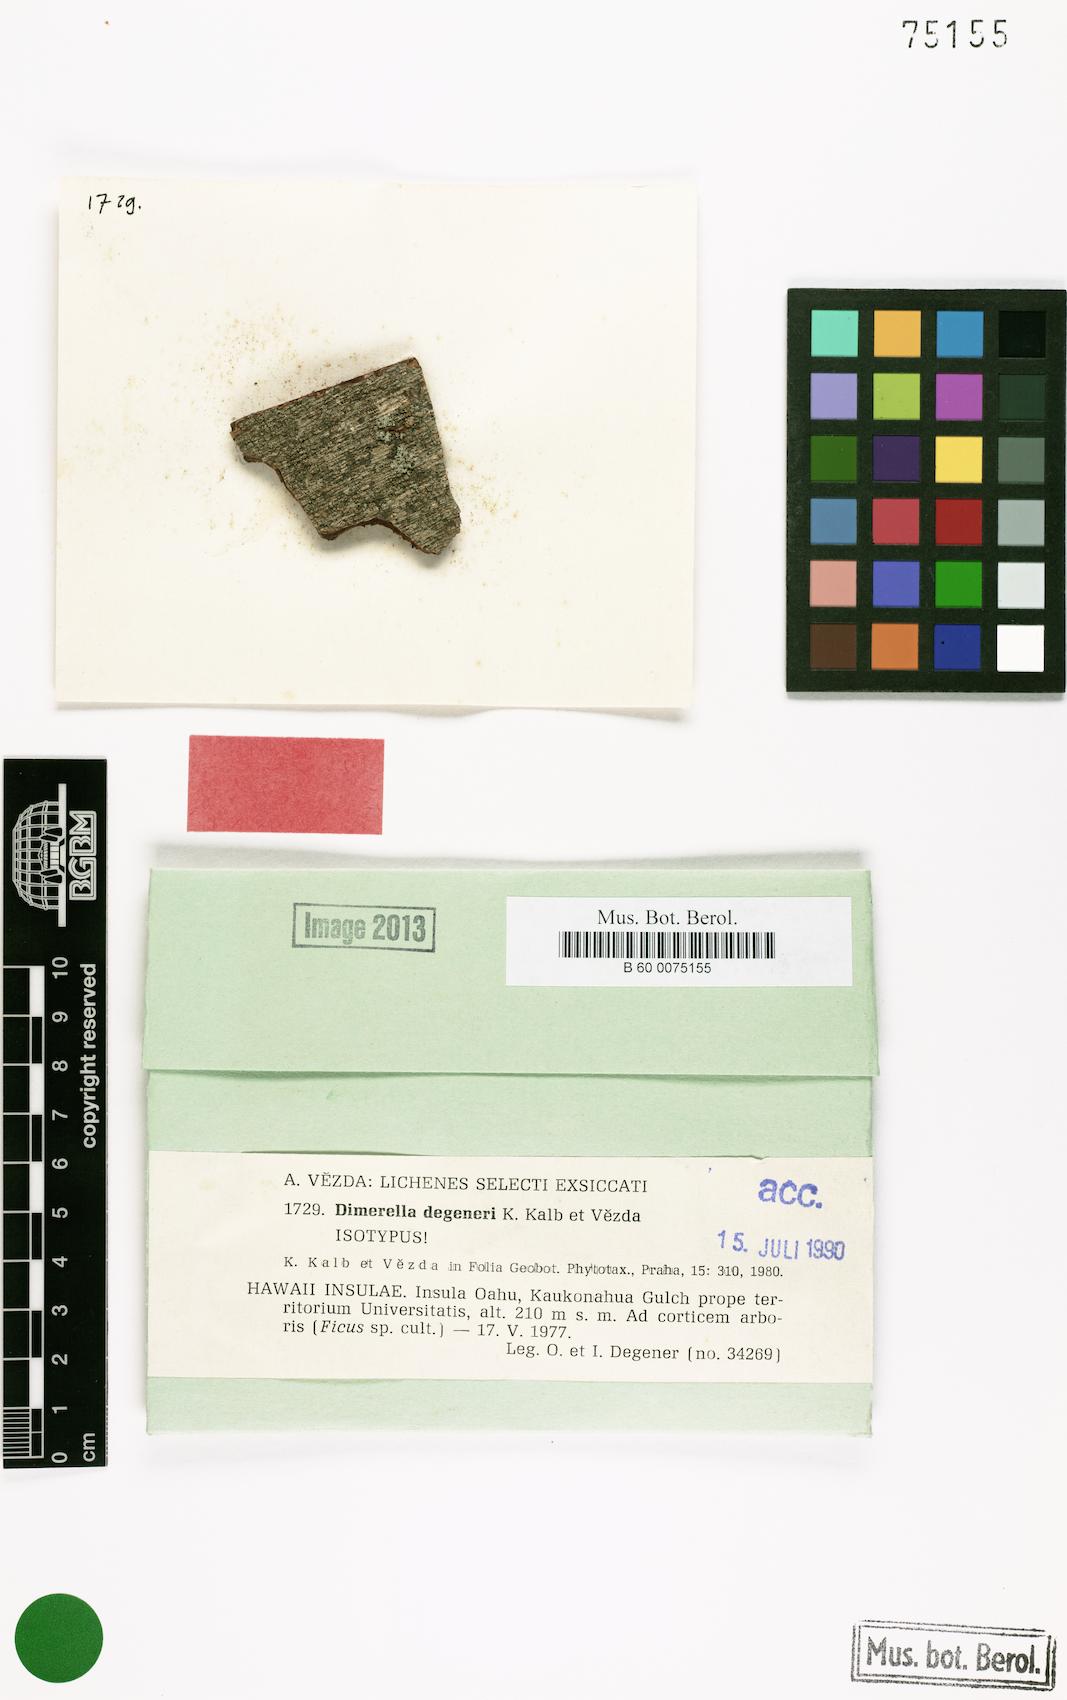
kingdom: Fungi
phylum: Ascomycota
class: Lecanoromycetes
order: Ostropales
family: Coenogoniaceae
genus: Coenogonium
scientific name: Coenogonium degeneri
